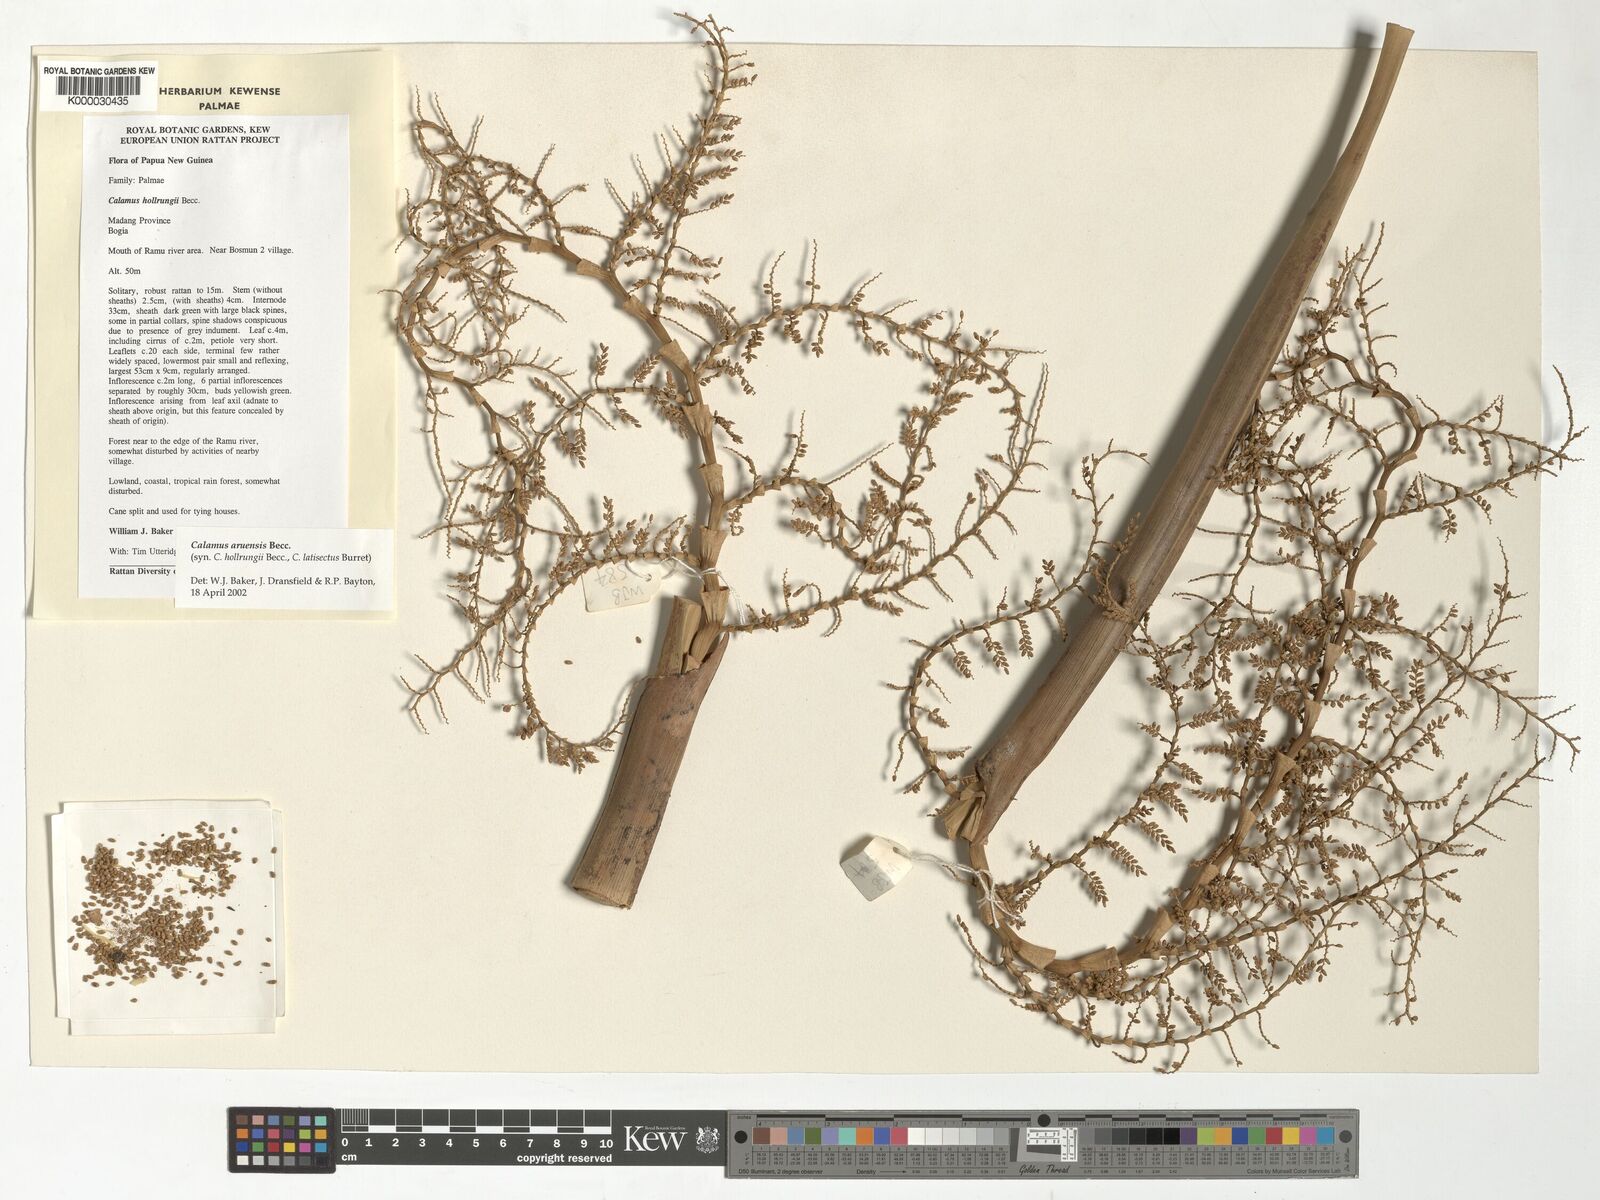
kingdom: Plantae
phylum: Tracheophyta
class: Liliopsida
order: Arecales
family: Arecaceae
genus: Calamus
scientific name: Calamus aruensis
